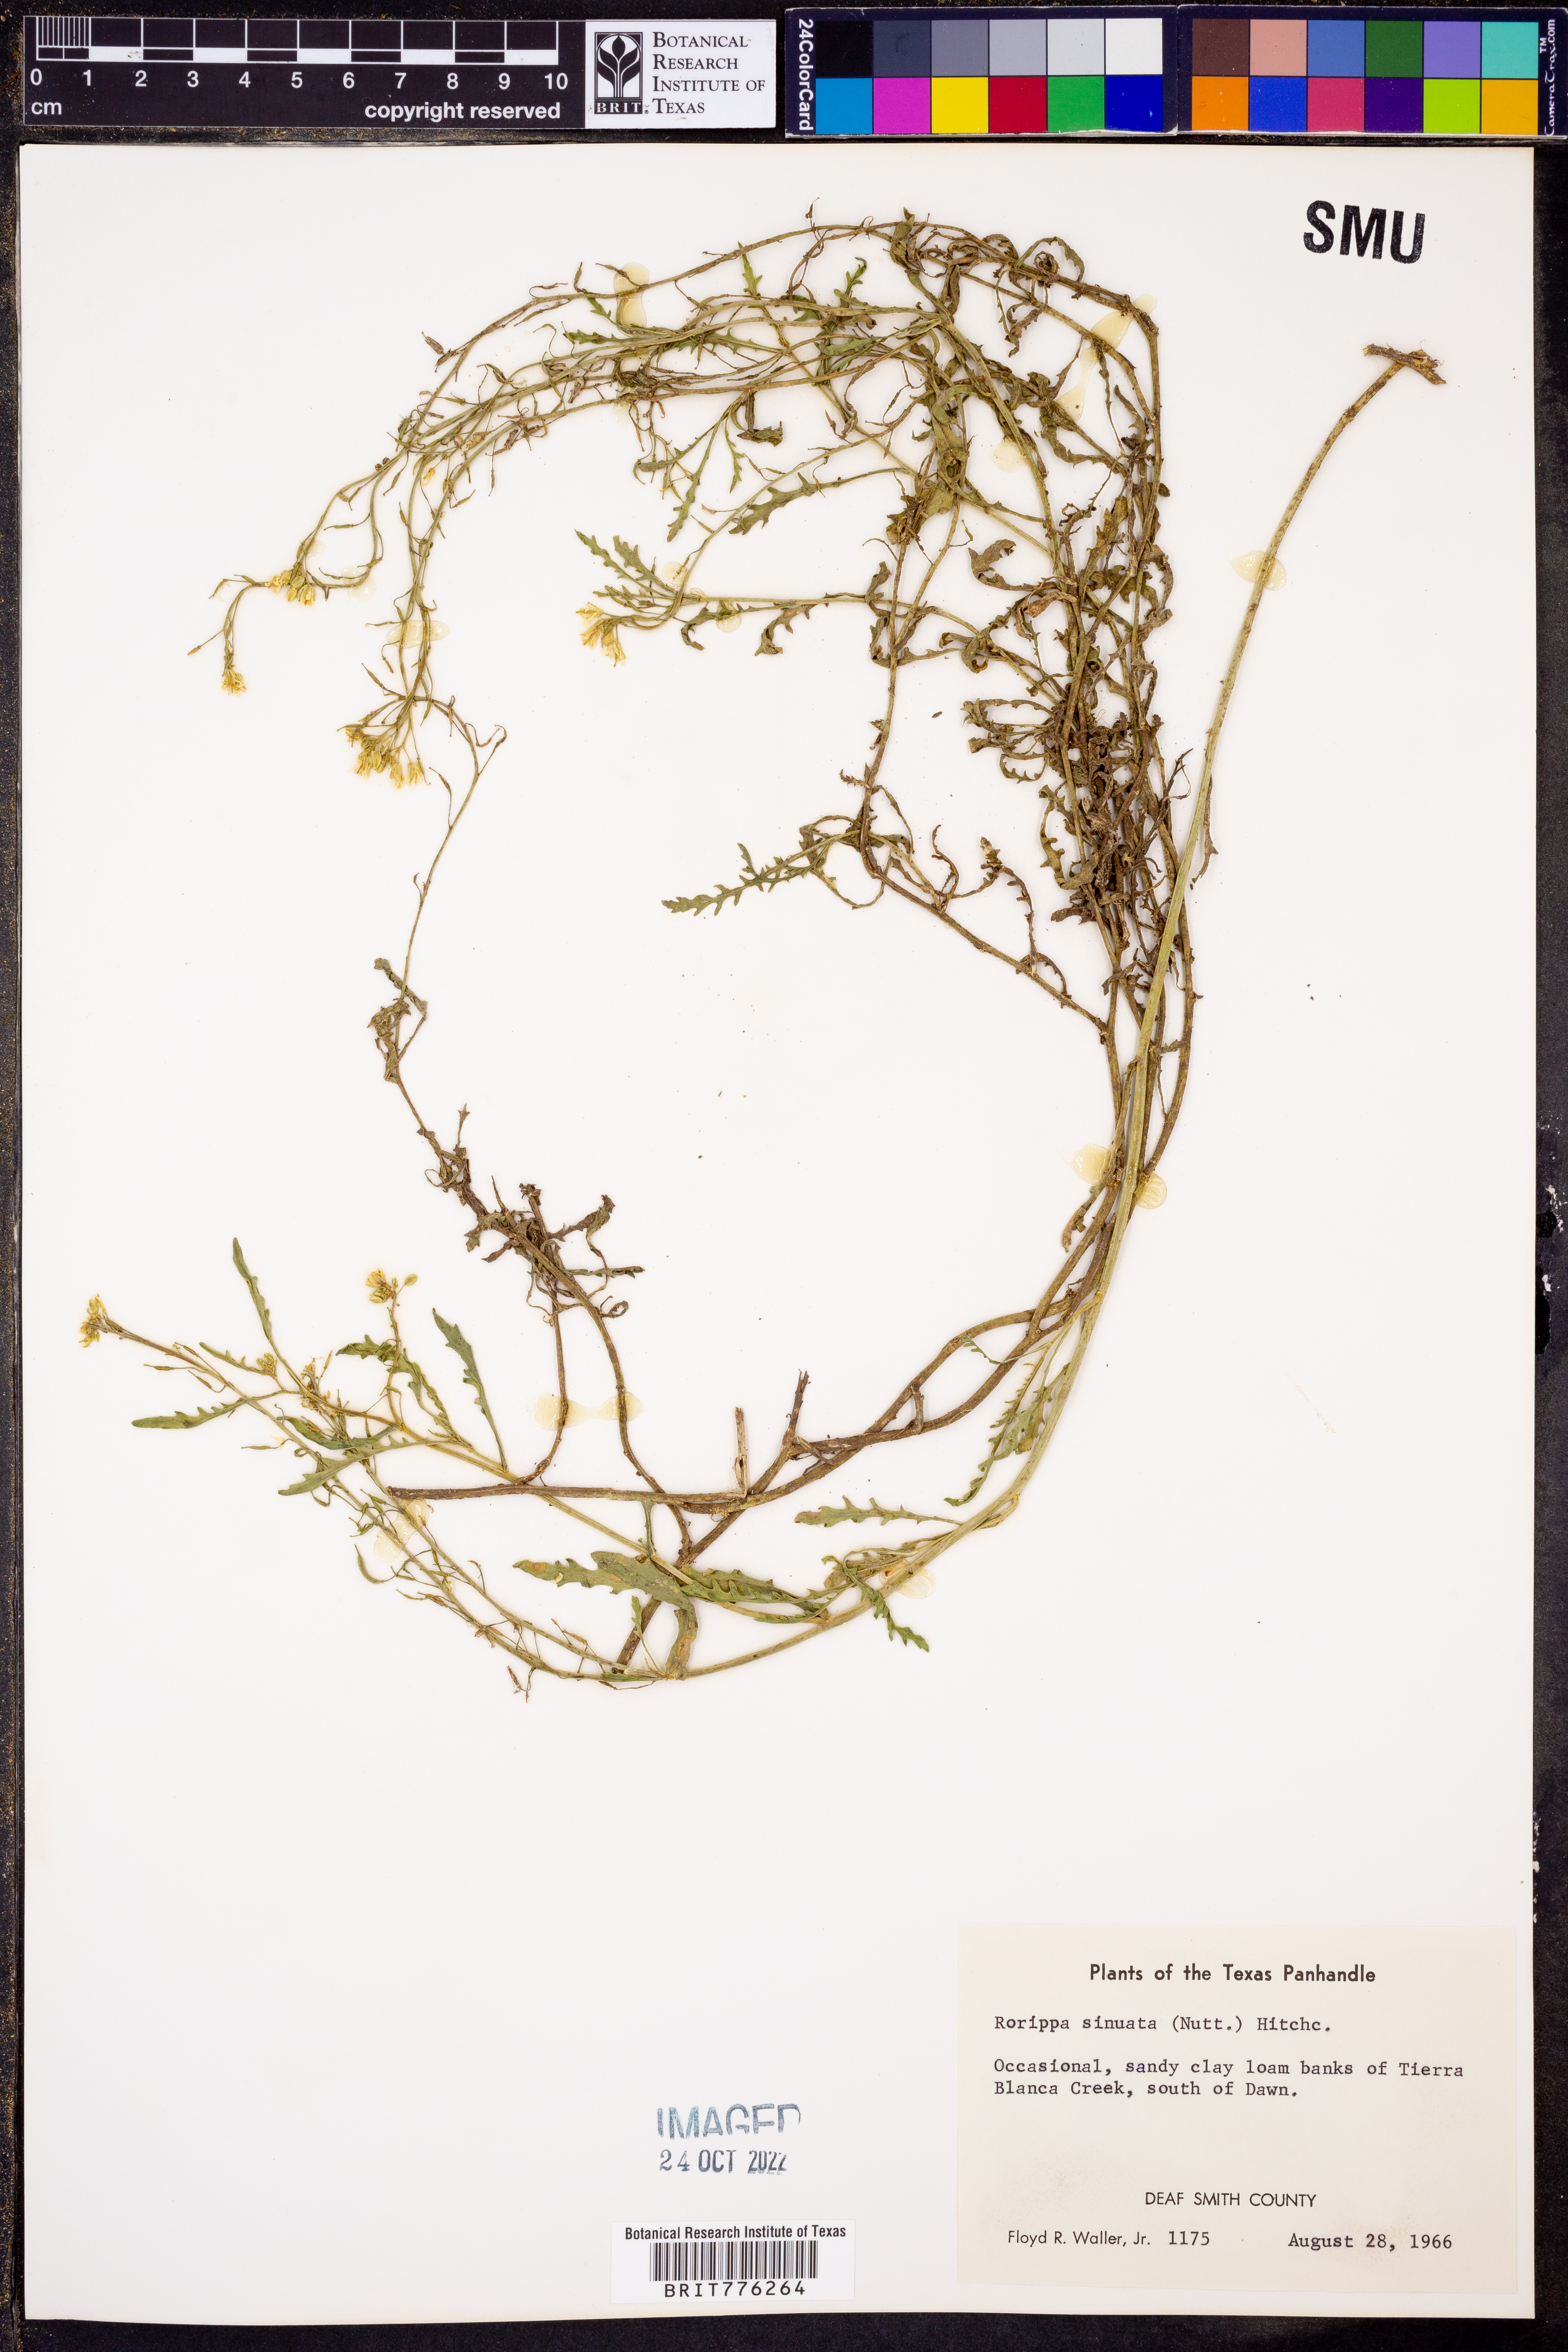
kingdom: Plantae
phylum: Tracheophyta
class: Magnoliopsida
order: Brassicales
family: Brassicaceae
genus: Rorippa
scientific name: Rorippa sinuata
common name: Spread yellow cress
